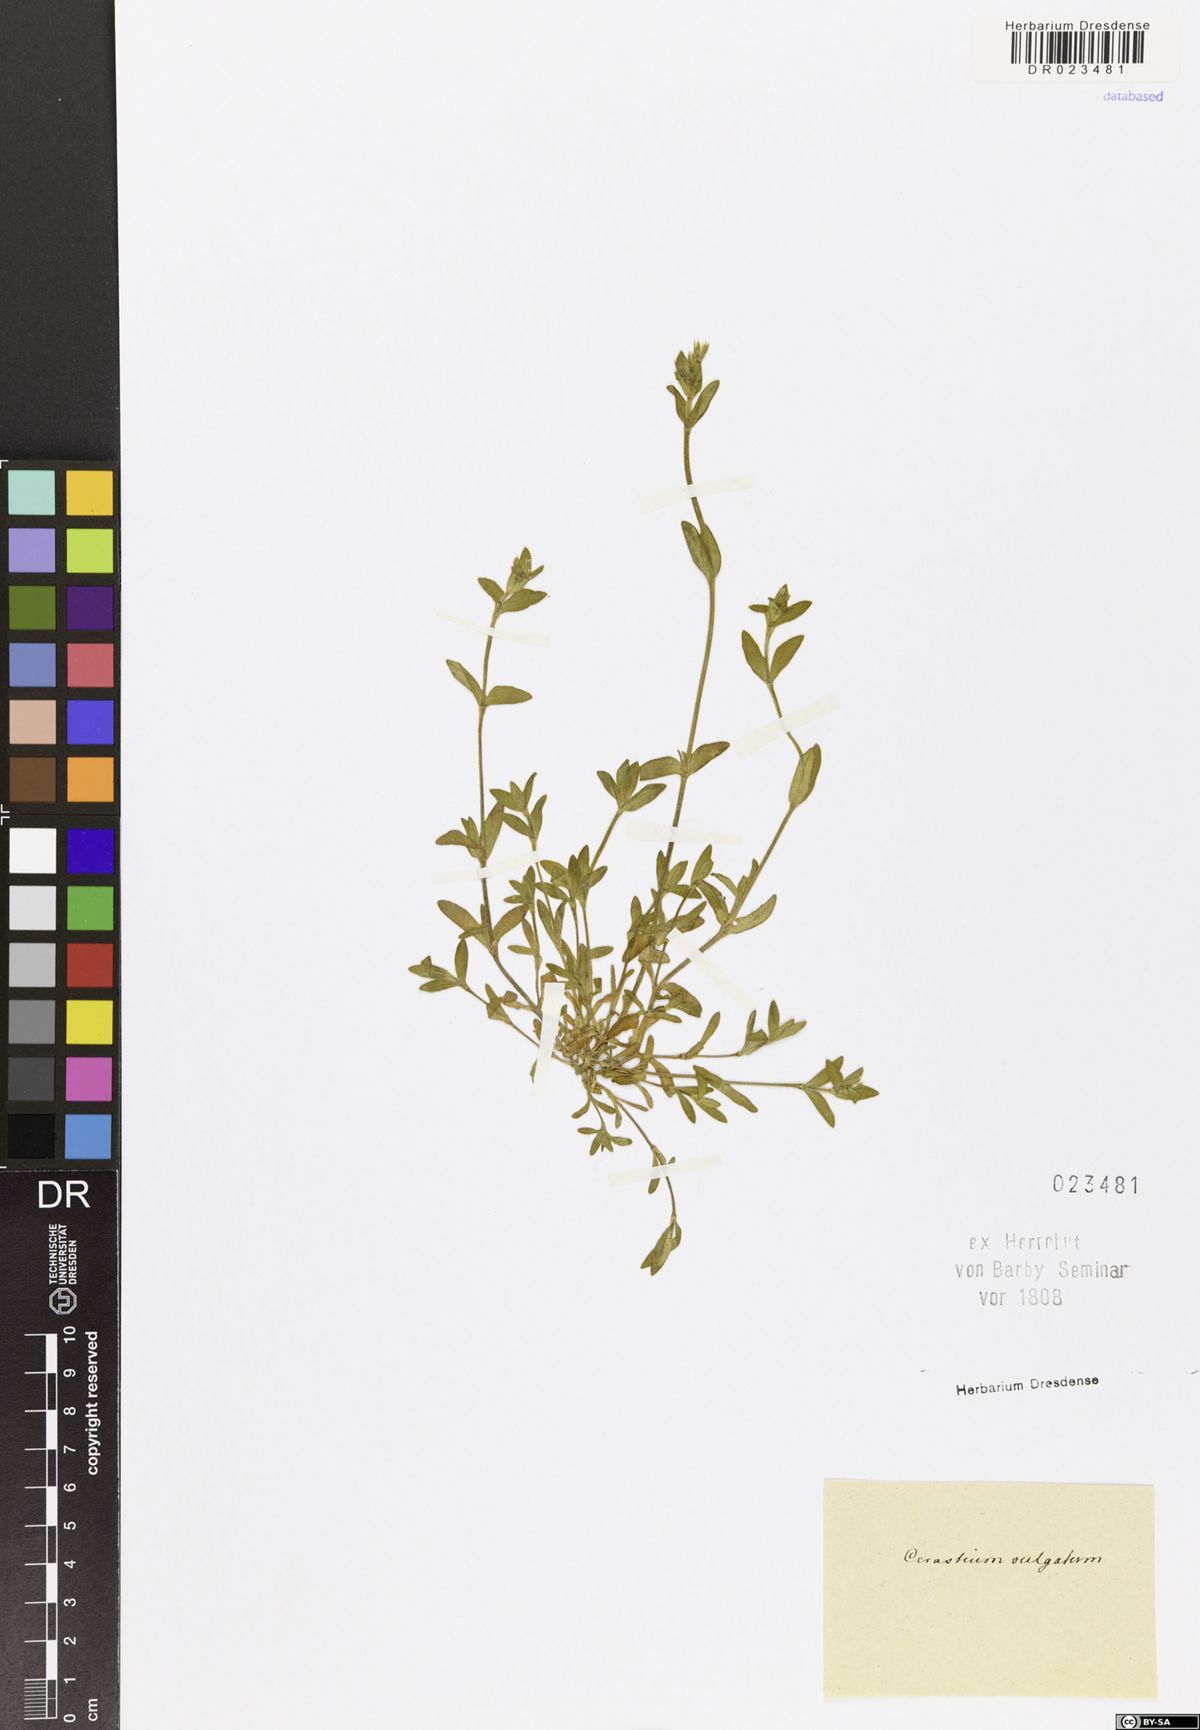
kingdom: Plantae
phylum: Tracheophyta
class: Magnoliopsida
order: Caryophyllales
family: Caryophyllaceae
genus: Cerastium
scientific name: Cerastium
